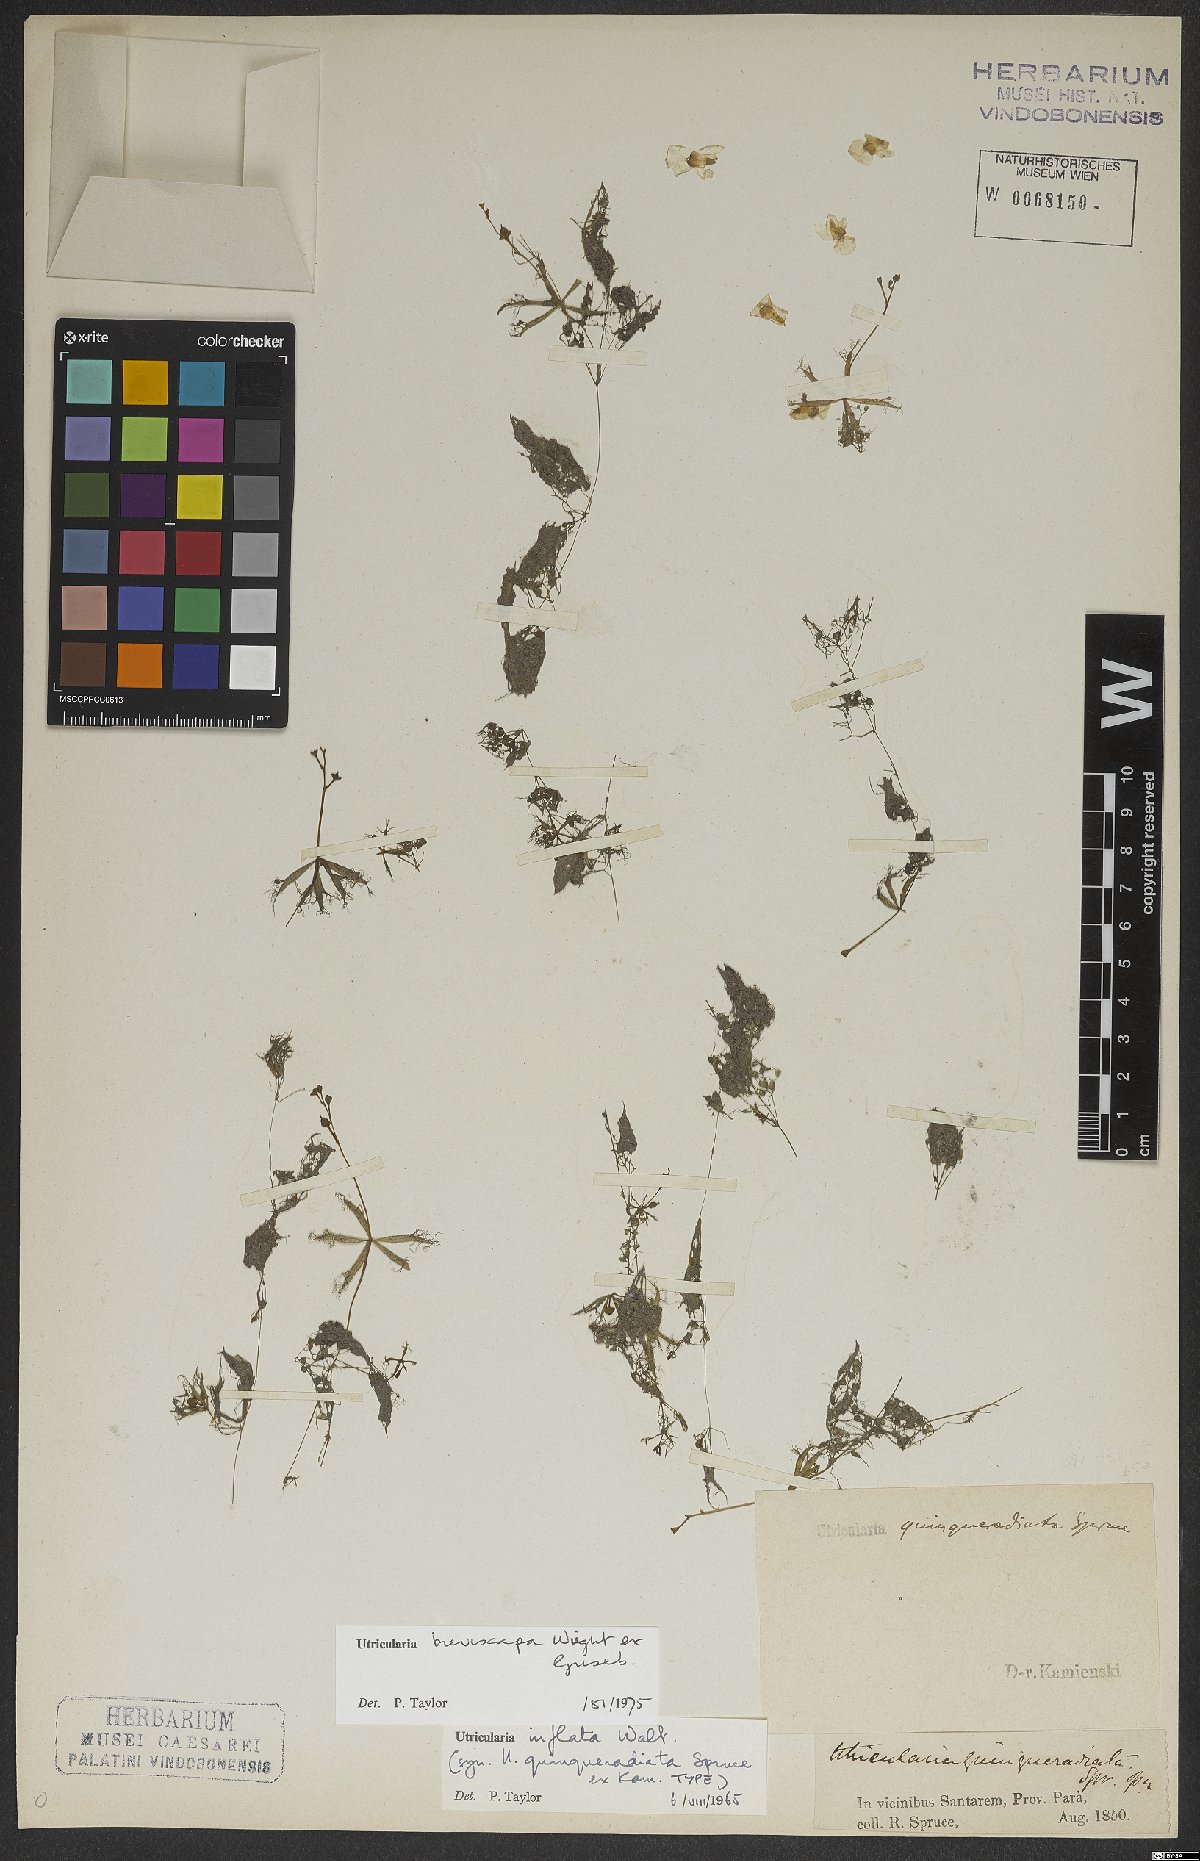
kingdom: Plantae
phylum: Tracheophyta
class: Magnoliopsida
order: Lamiales
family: Lentibulariaceae
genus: Utricularia
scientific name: Utricularia breviscapa
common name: Bladderwort
